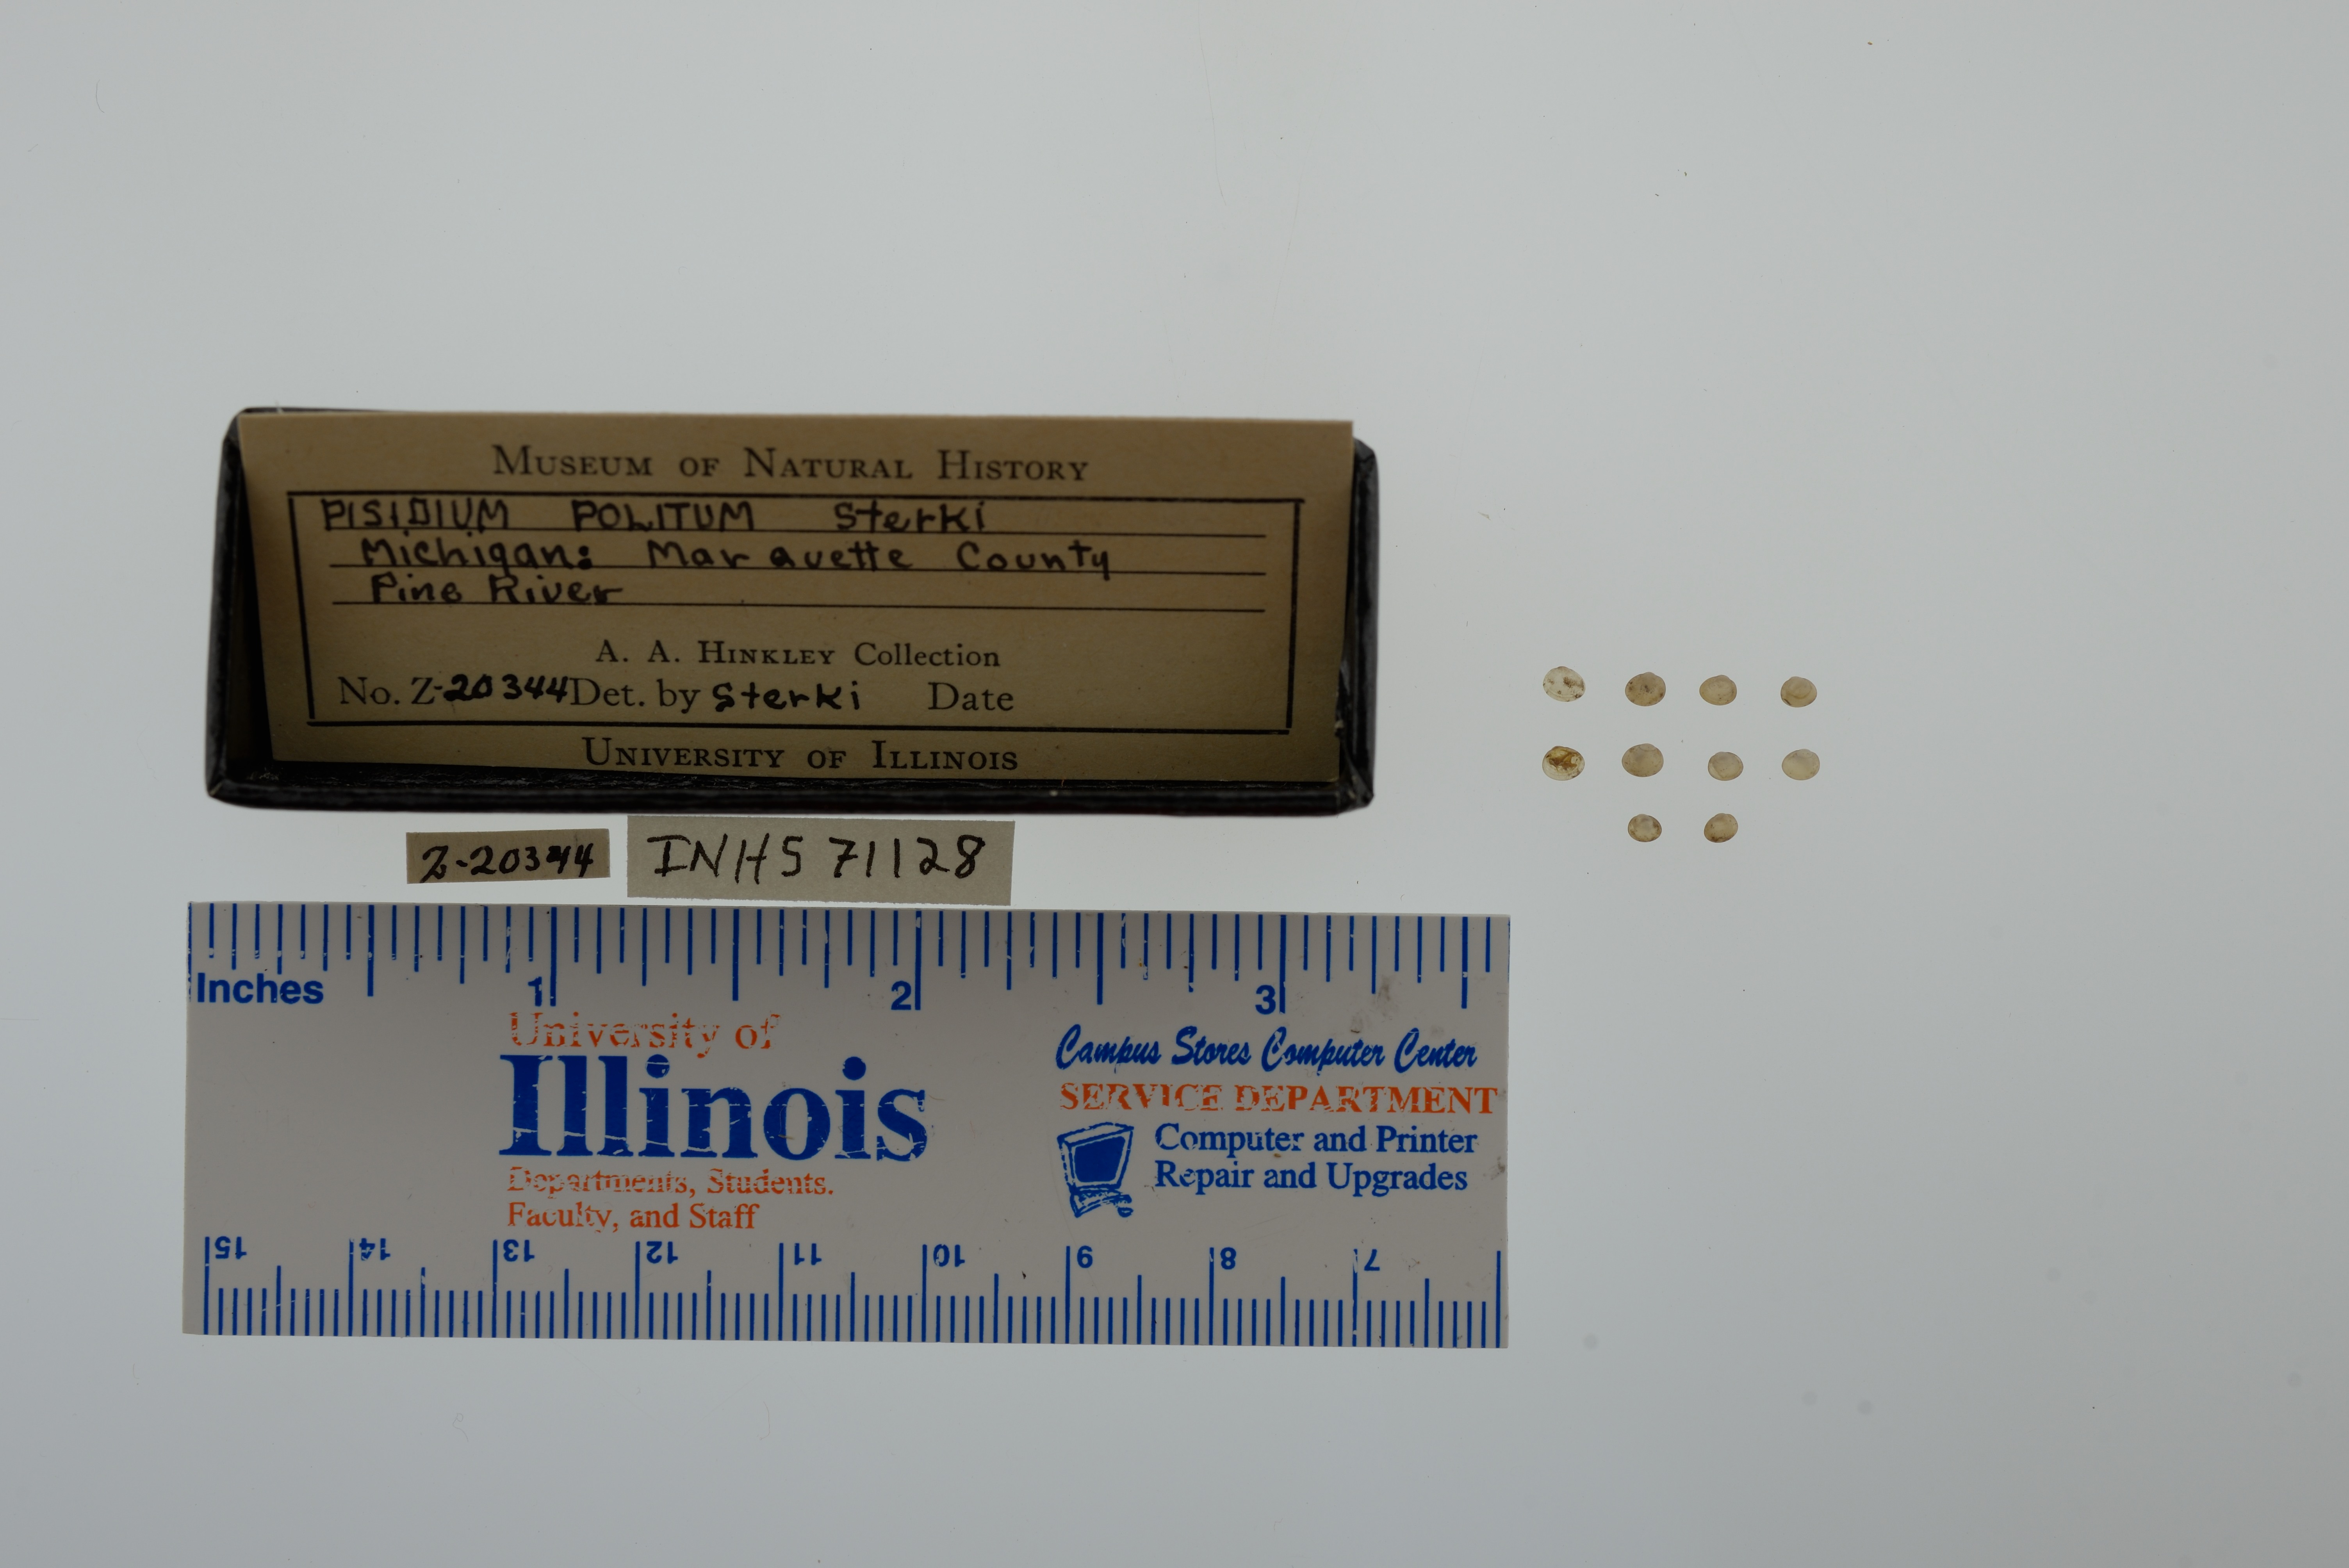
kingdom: Animalia
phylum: Mollusca
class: Bivalvia
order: Sphaeriida
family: Sphaeriidae
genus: Euglesa
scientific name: Euglesa casertana
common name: Caserta pea mussel
